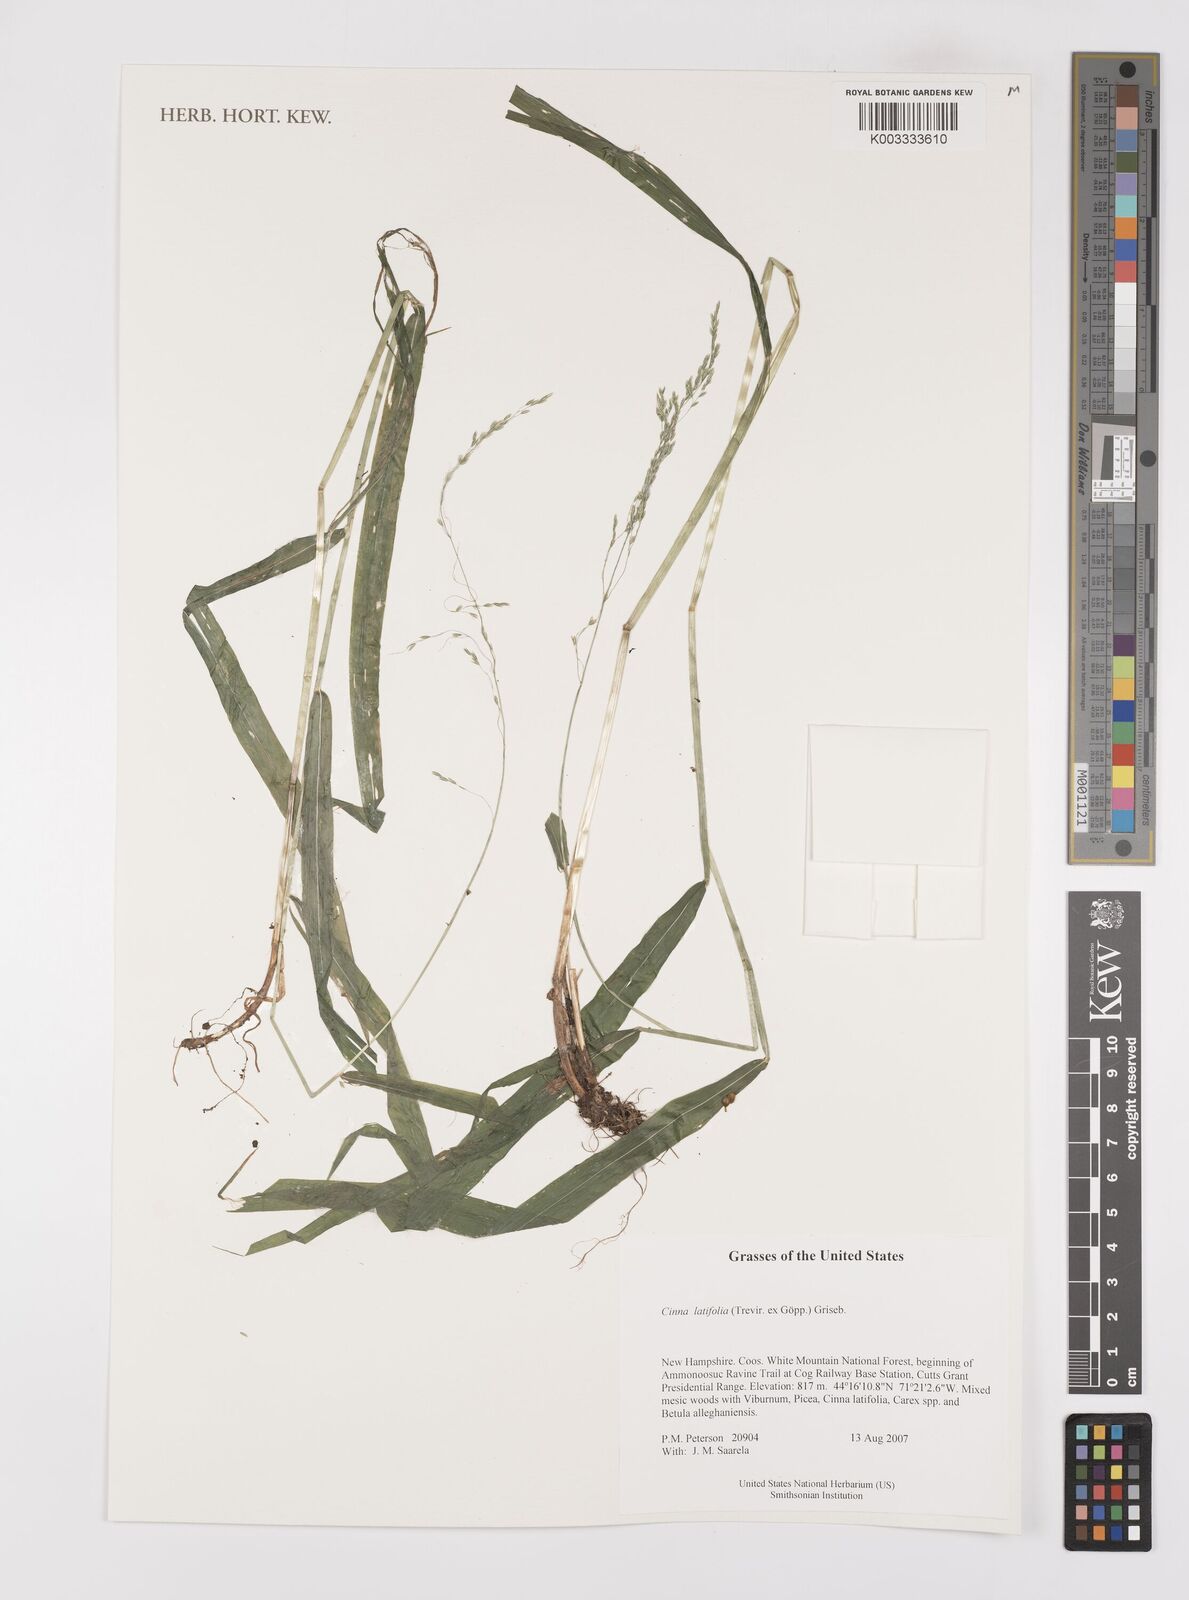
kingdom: Plantae
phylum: Tracheophyta
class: Liliopsida
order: Poales
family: Poaceae
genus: Cinna
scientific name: Cinna latifolia
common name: Drooping woodreed
